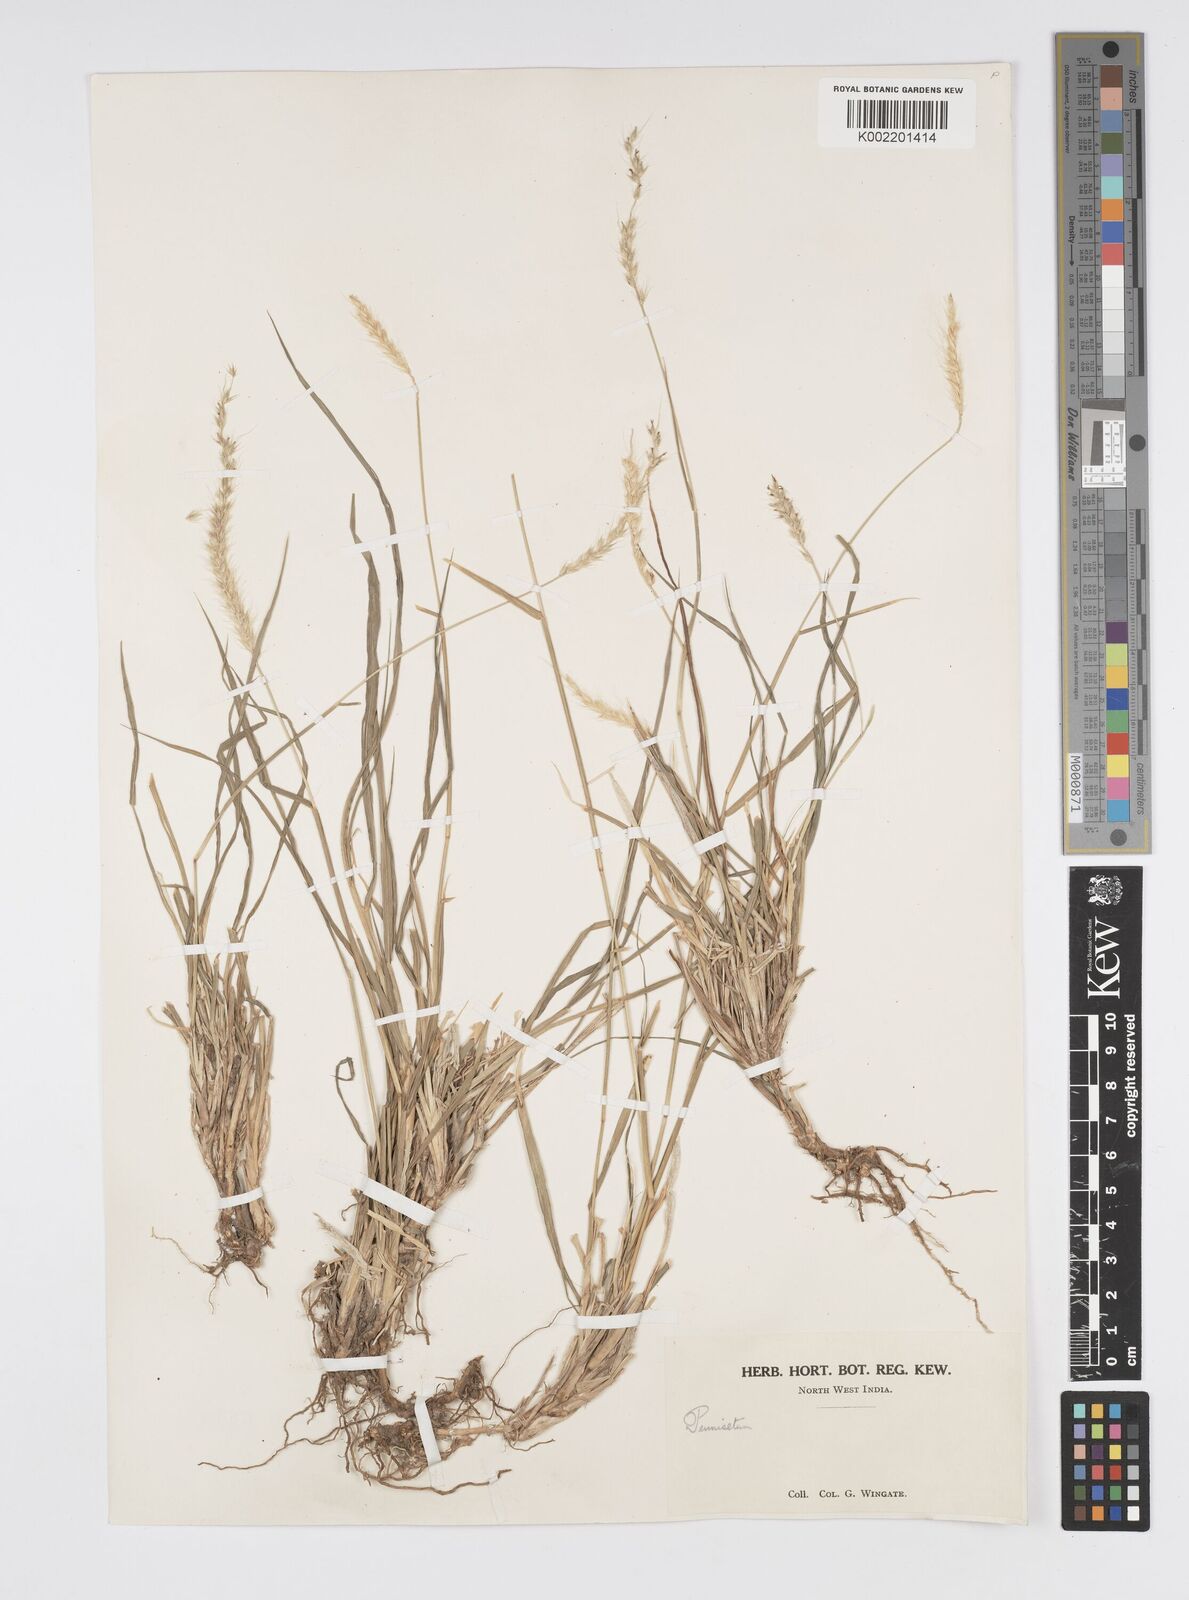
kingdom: Plantae
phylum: Tracheophyta
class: Liliopsida
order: Poales
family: Poaceae
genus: Cenchrus
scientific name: Cenchrus flaccidus
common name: Flaccid grass
